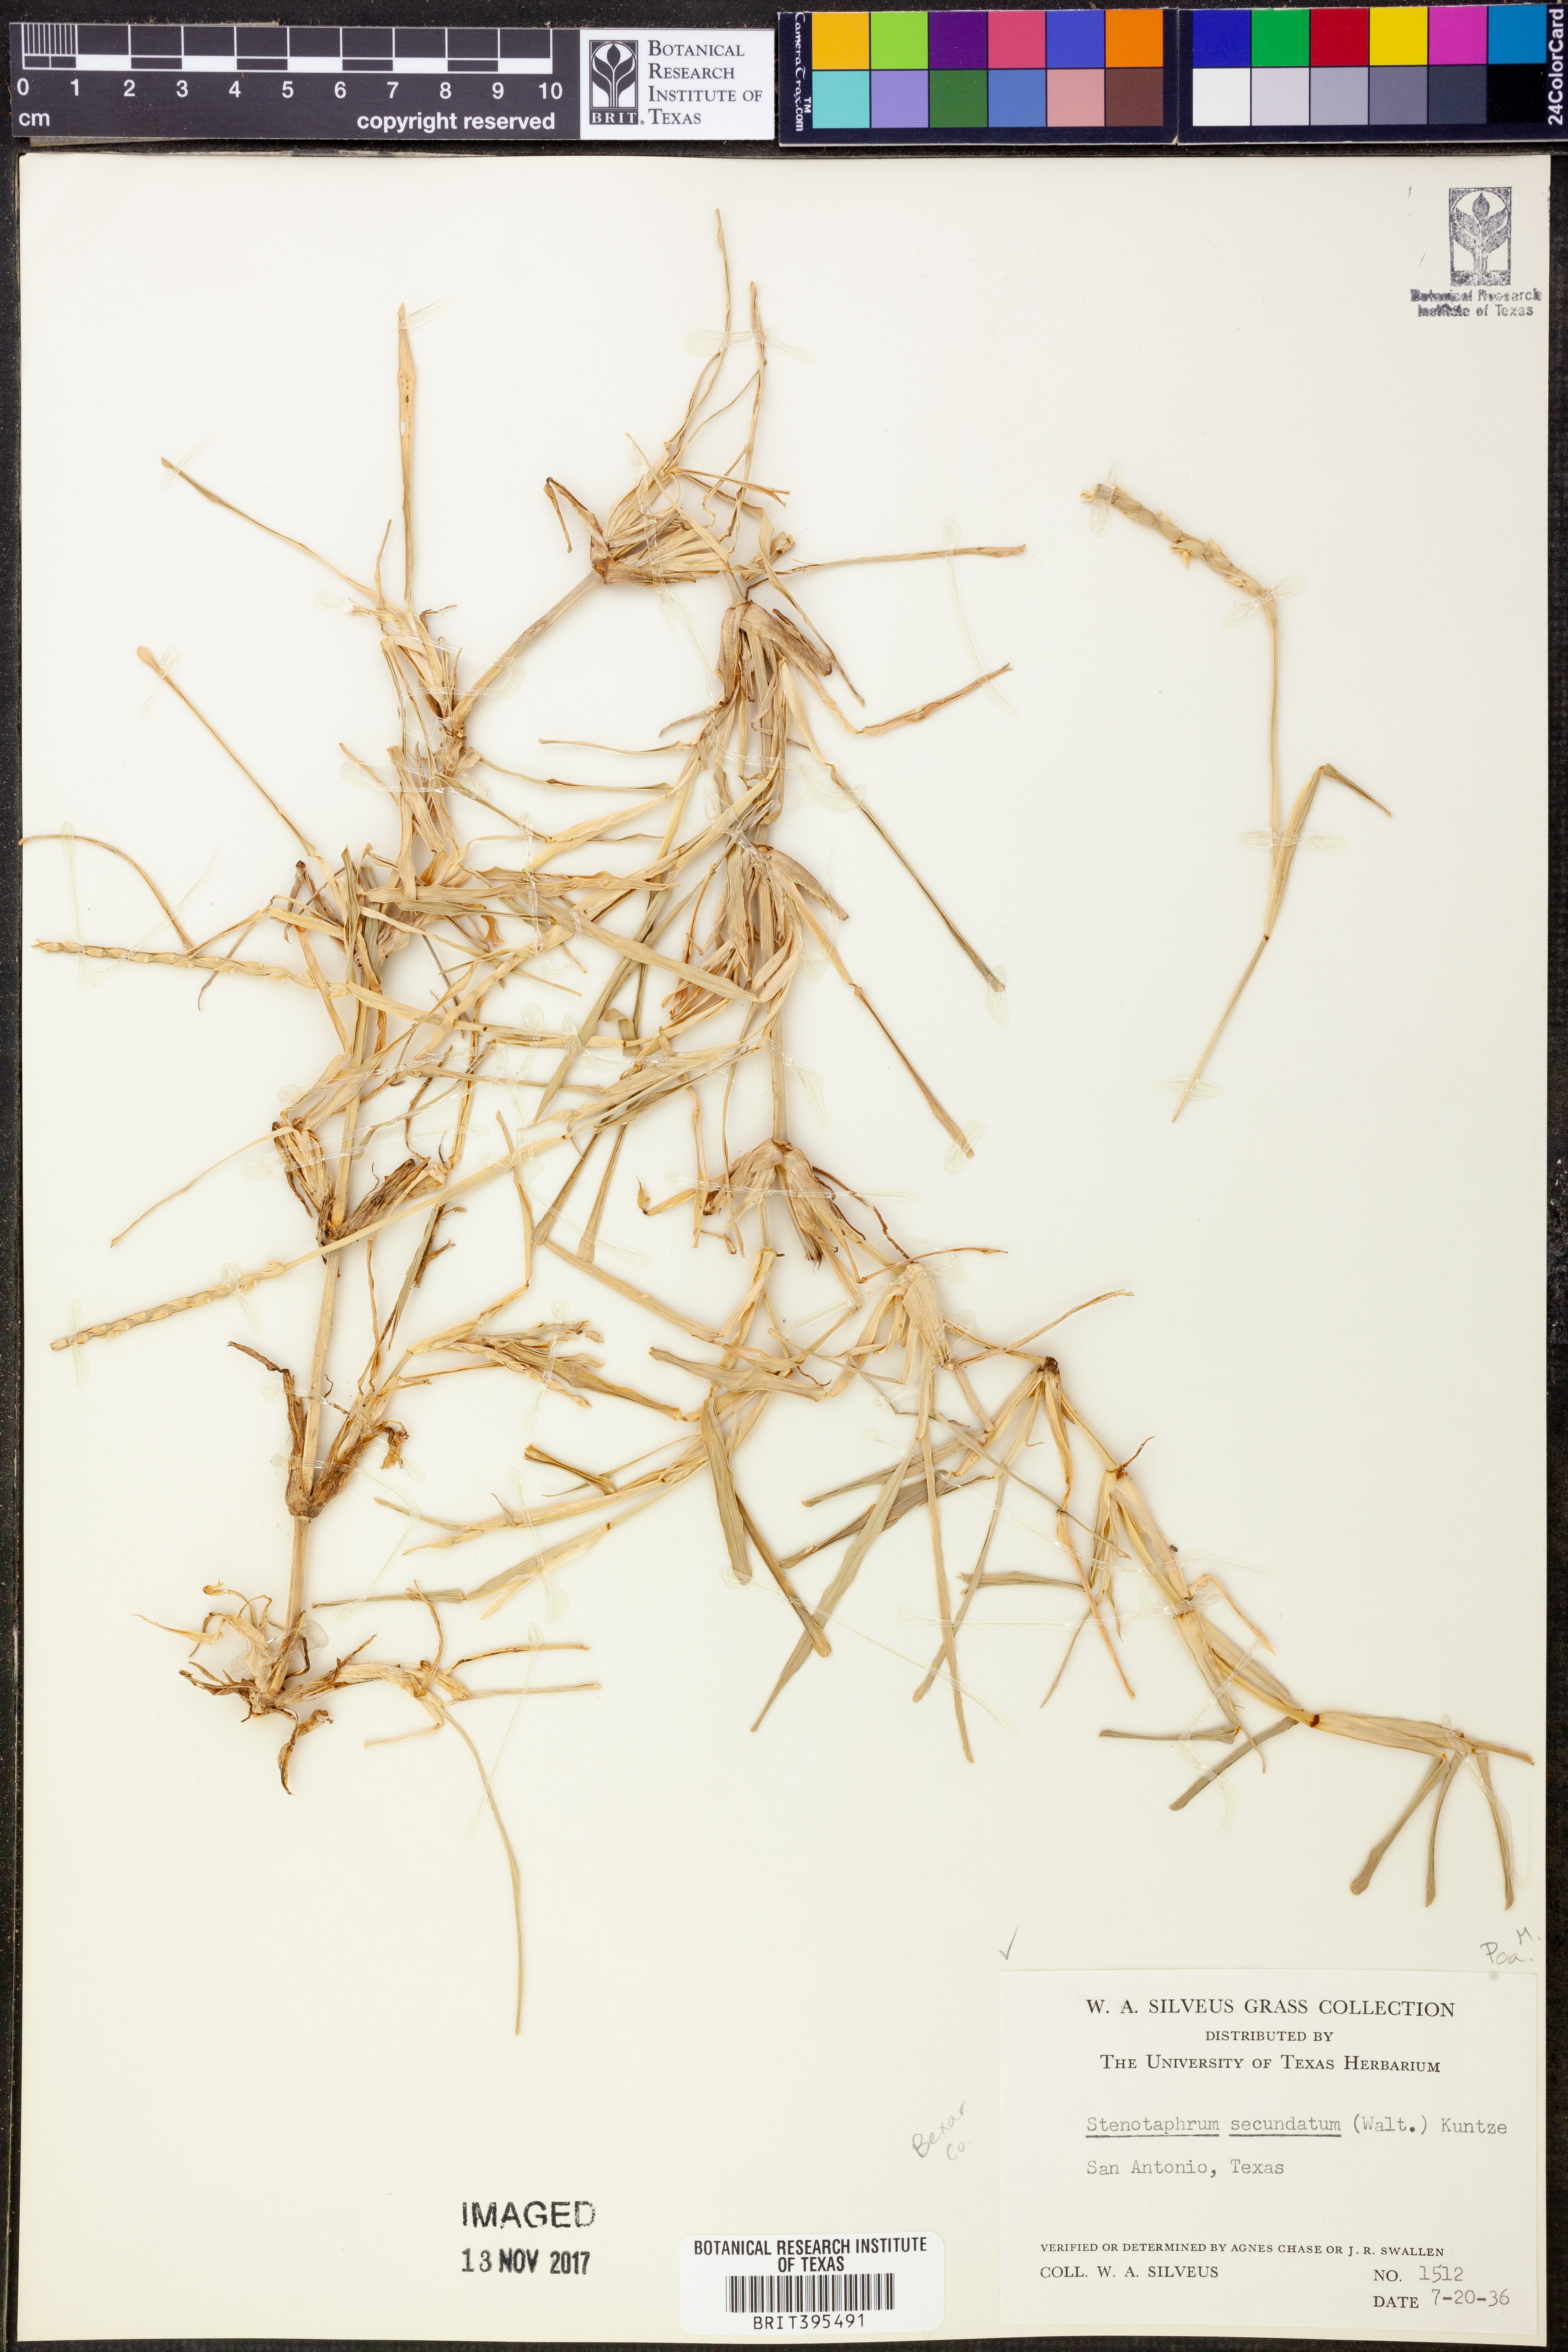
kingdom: Plantae
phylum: Tracheophyta
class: Liliopsida
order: Poales
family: Poaceae
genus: Stenotaphrum
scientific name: Stenotaphrum secundatum
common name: St. augustine grass
